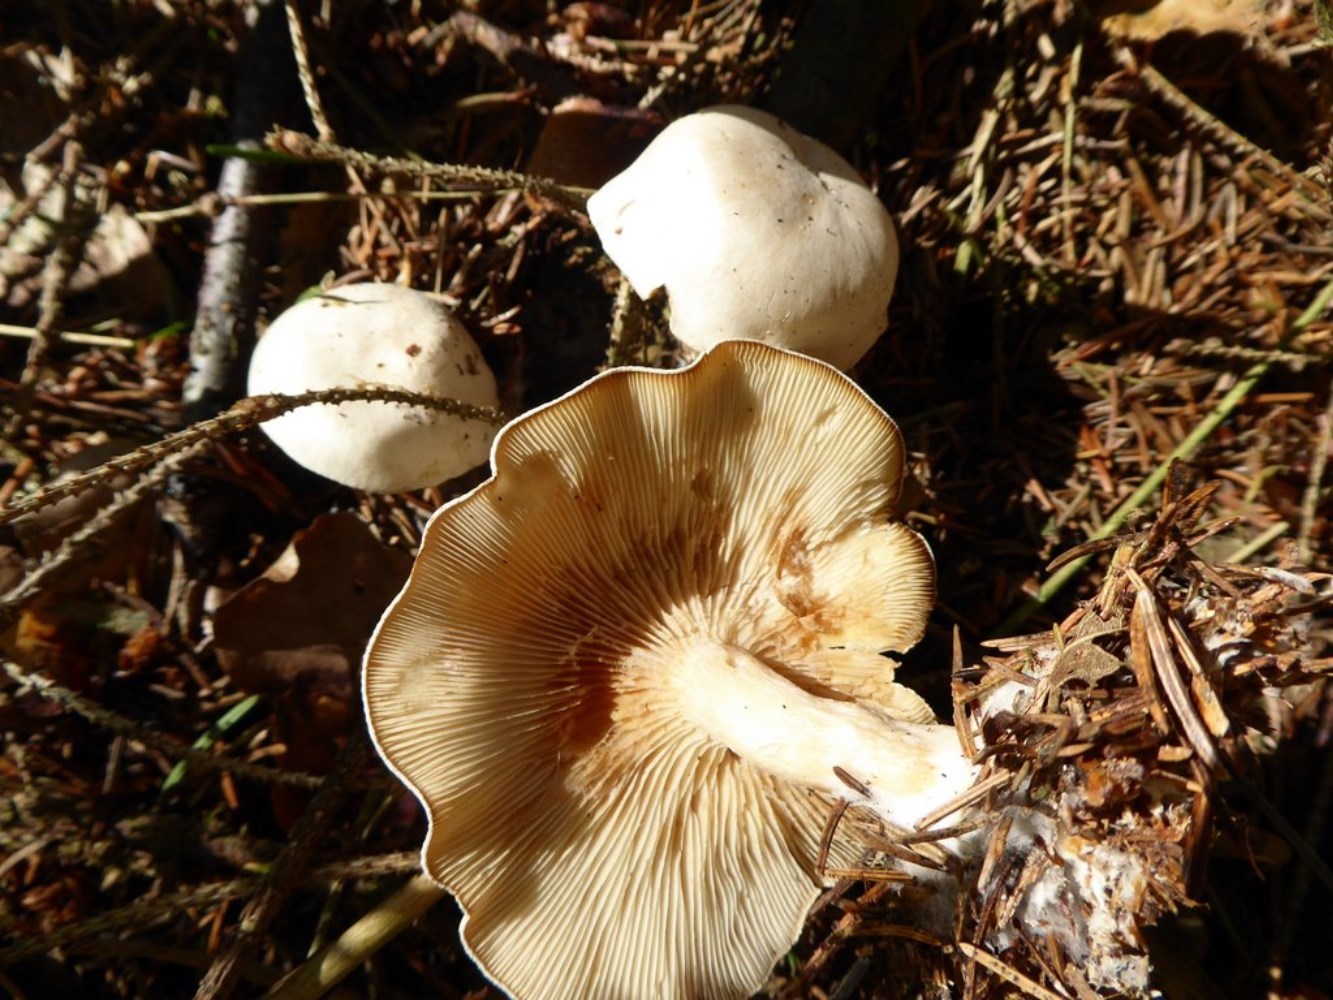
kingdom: Fungi
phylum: Basidiomycota
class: Agaricomycetes
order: Agaricales
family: Tricholomataceae
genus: Clitocybe
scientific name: Clitocybe phyllophila
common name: løv-tragthat
